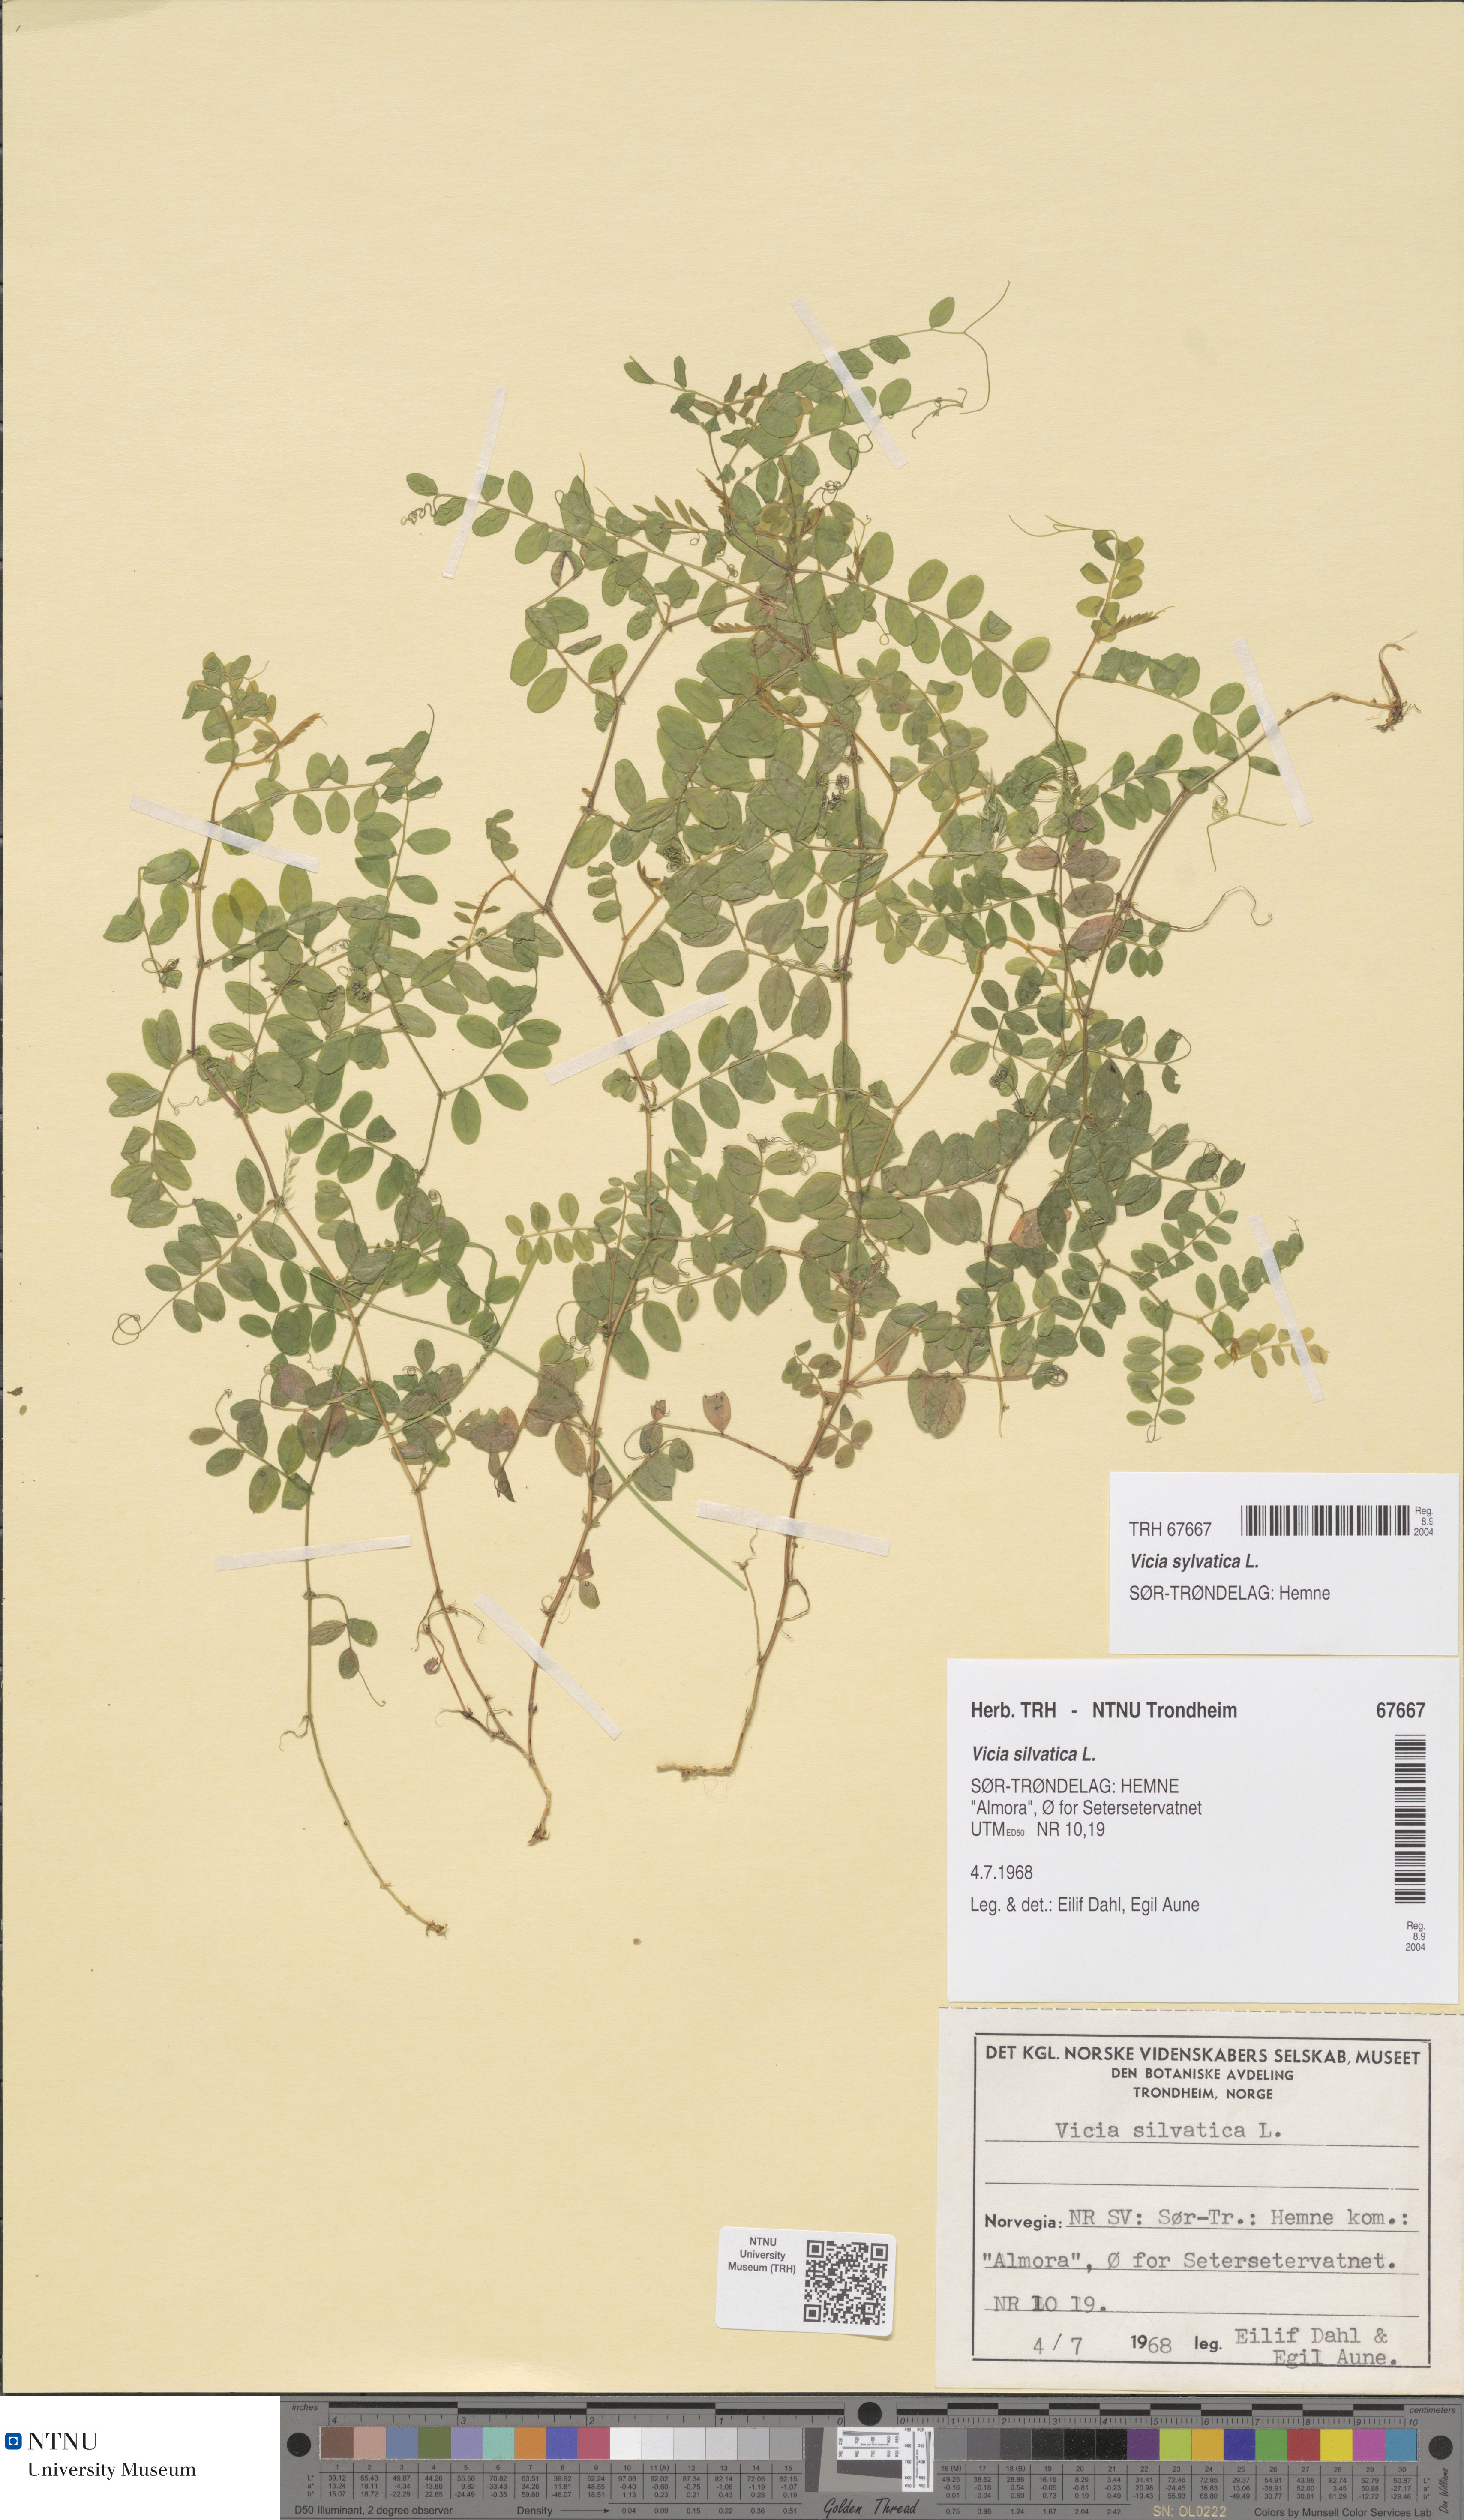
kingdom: Plantae
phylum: Tracheophyta
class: Magnoliopsida
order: Fabales
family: Fabaceae
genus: Vicia
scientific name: Vicia sylvatica
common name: Wood vetch
